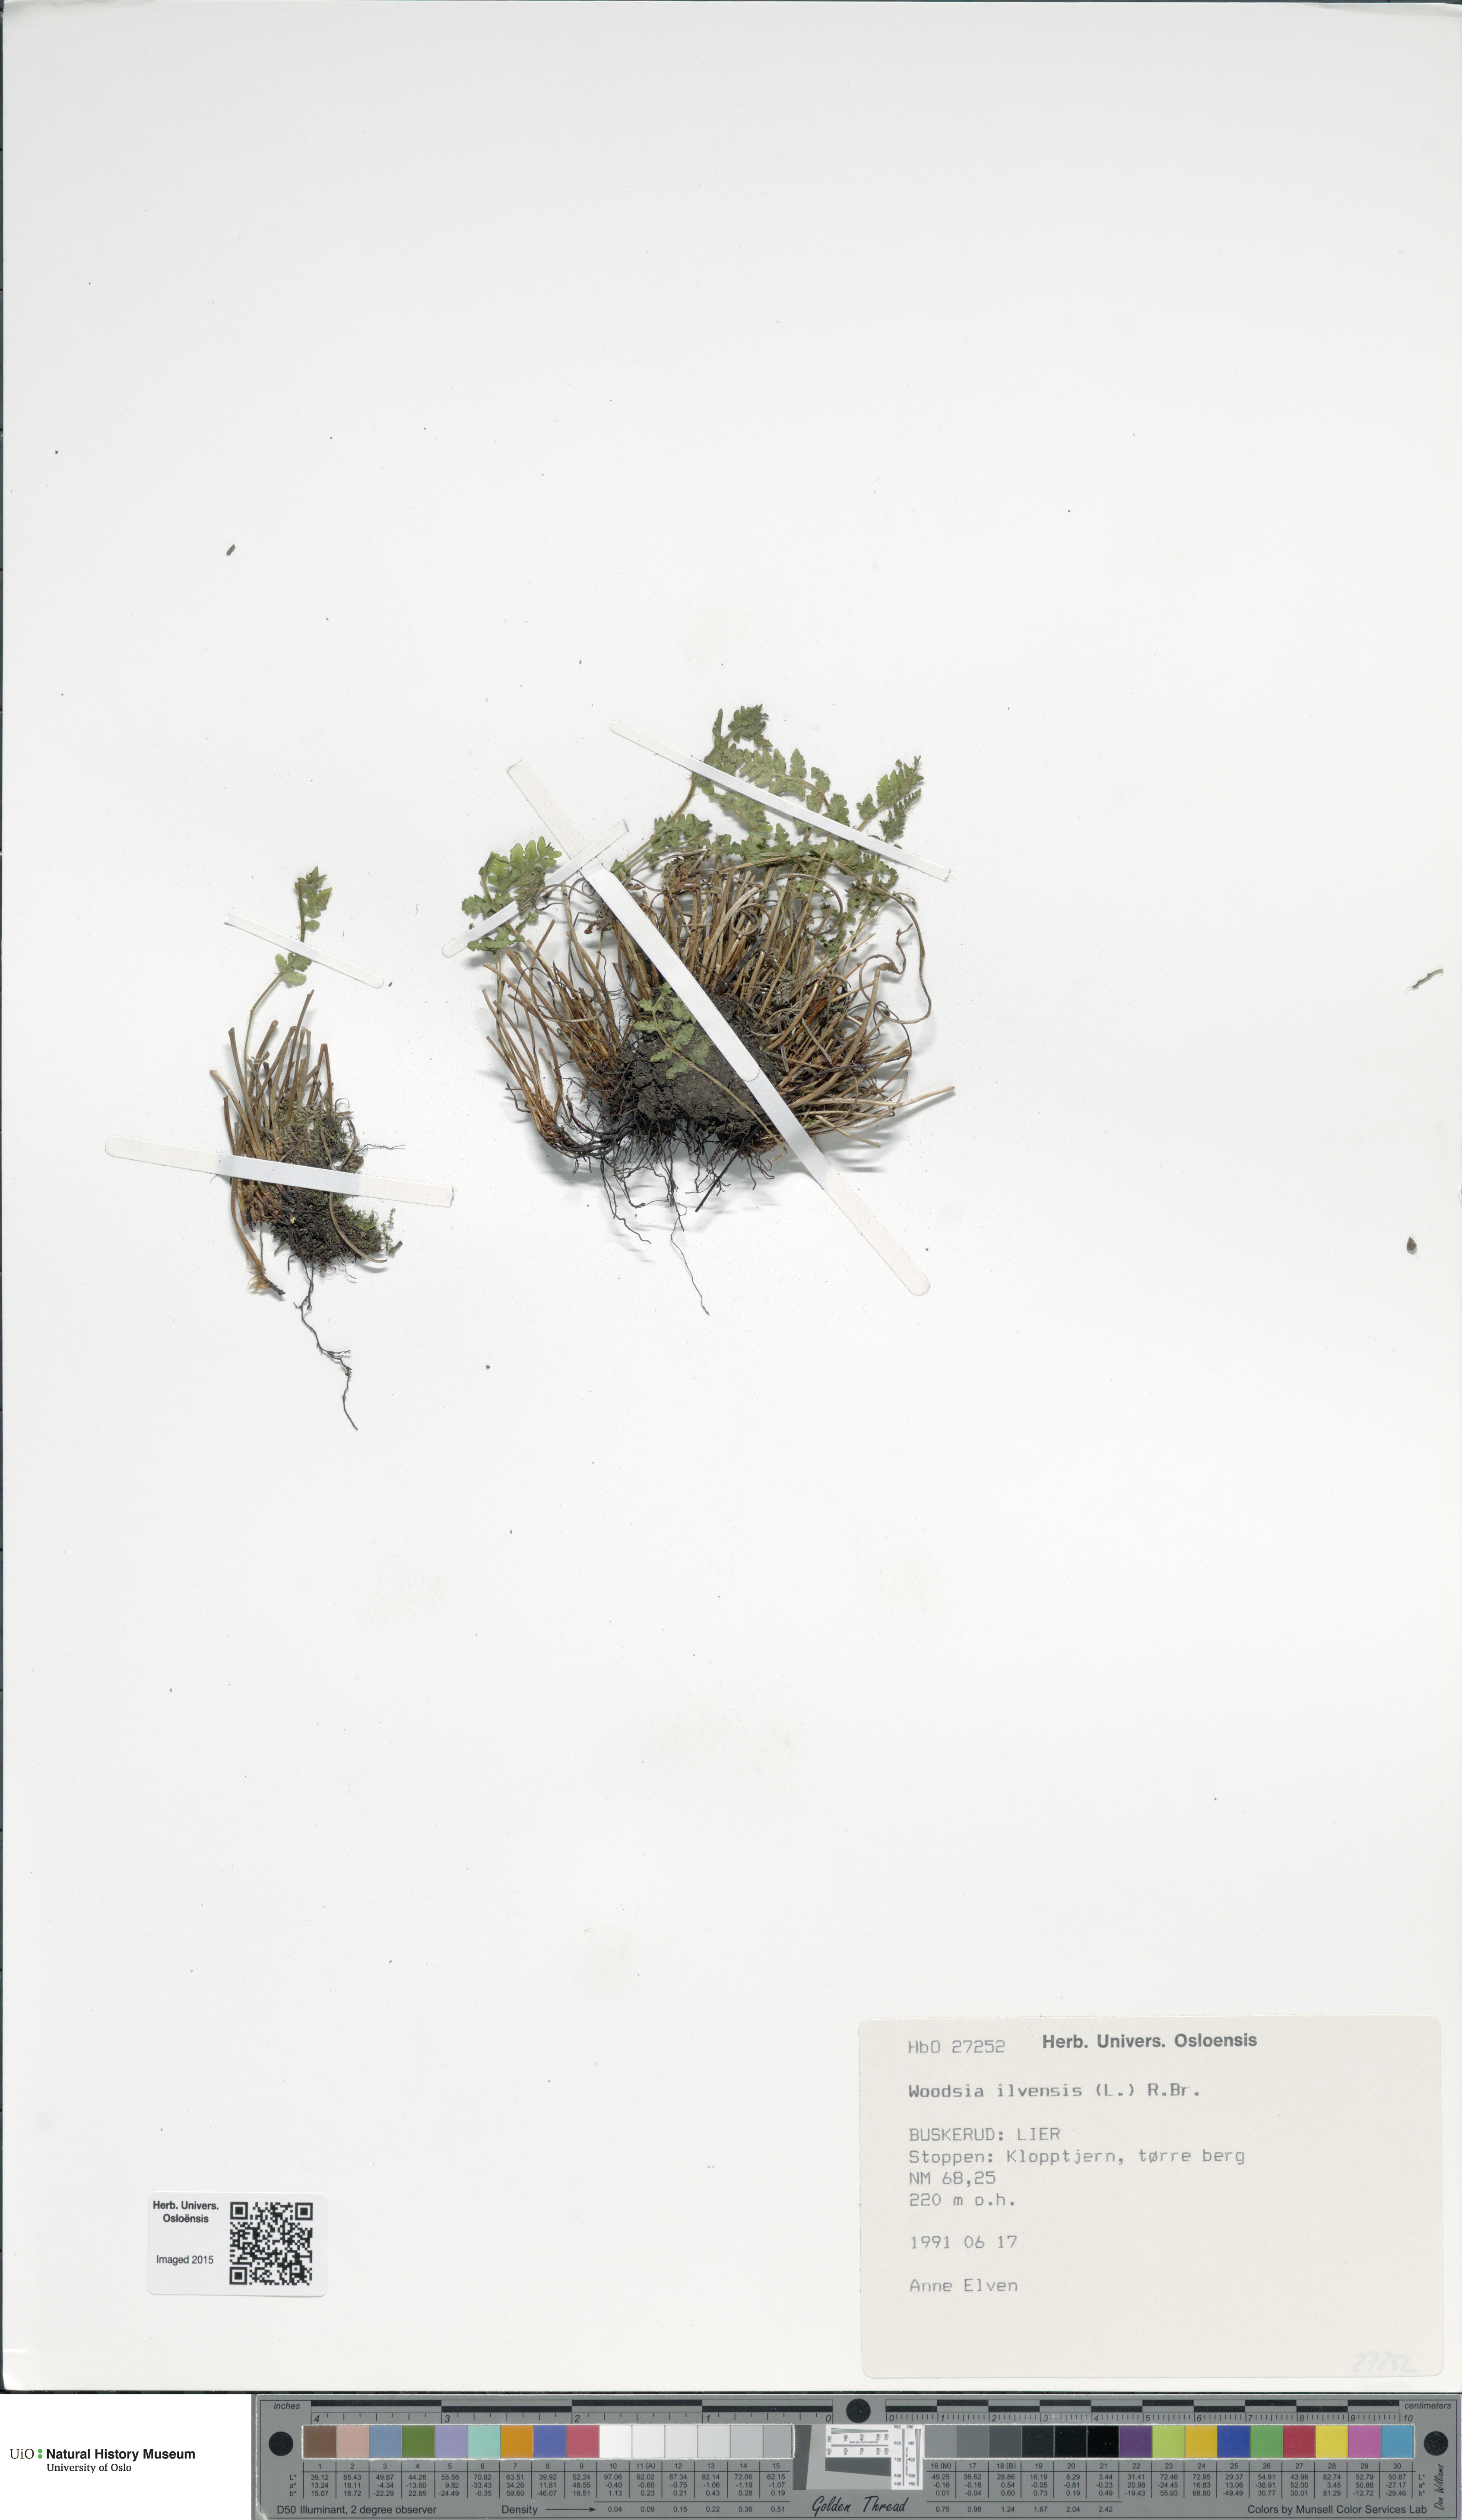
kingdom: Plantae
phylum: Tracheophyta
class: Polypodiopsida
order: Polypodiales
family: Woodsiaceae
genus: Woodsia
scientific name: Woodsia ilvensis
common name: Fragrant woodsia
